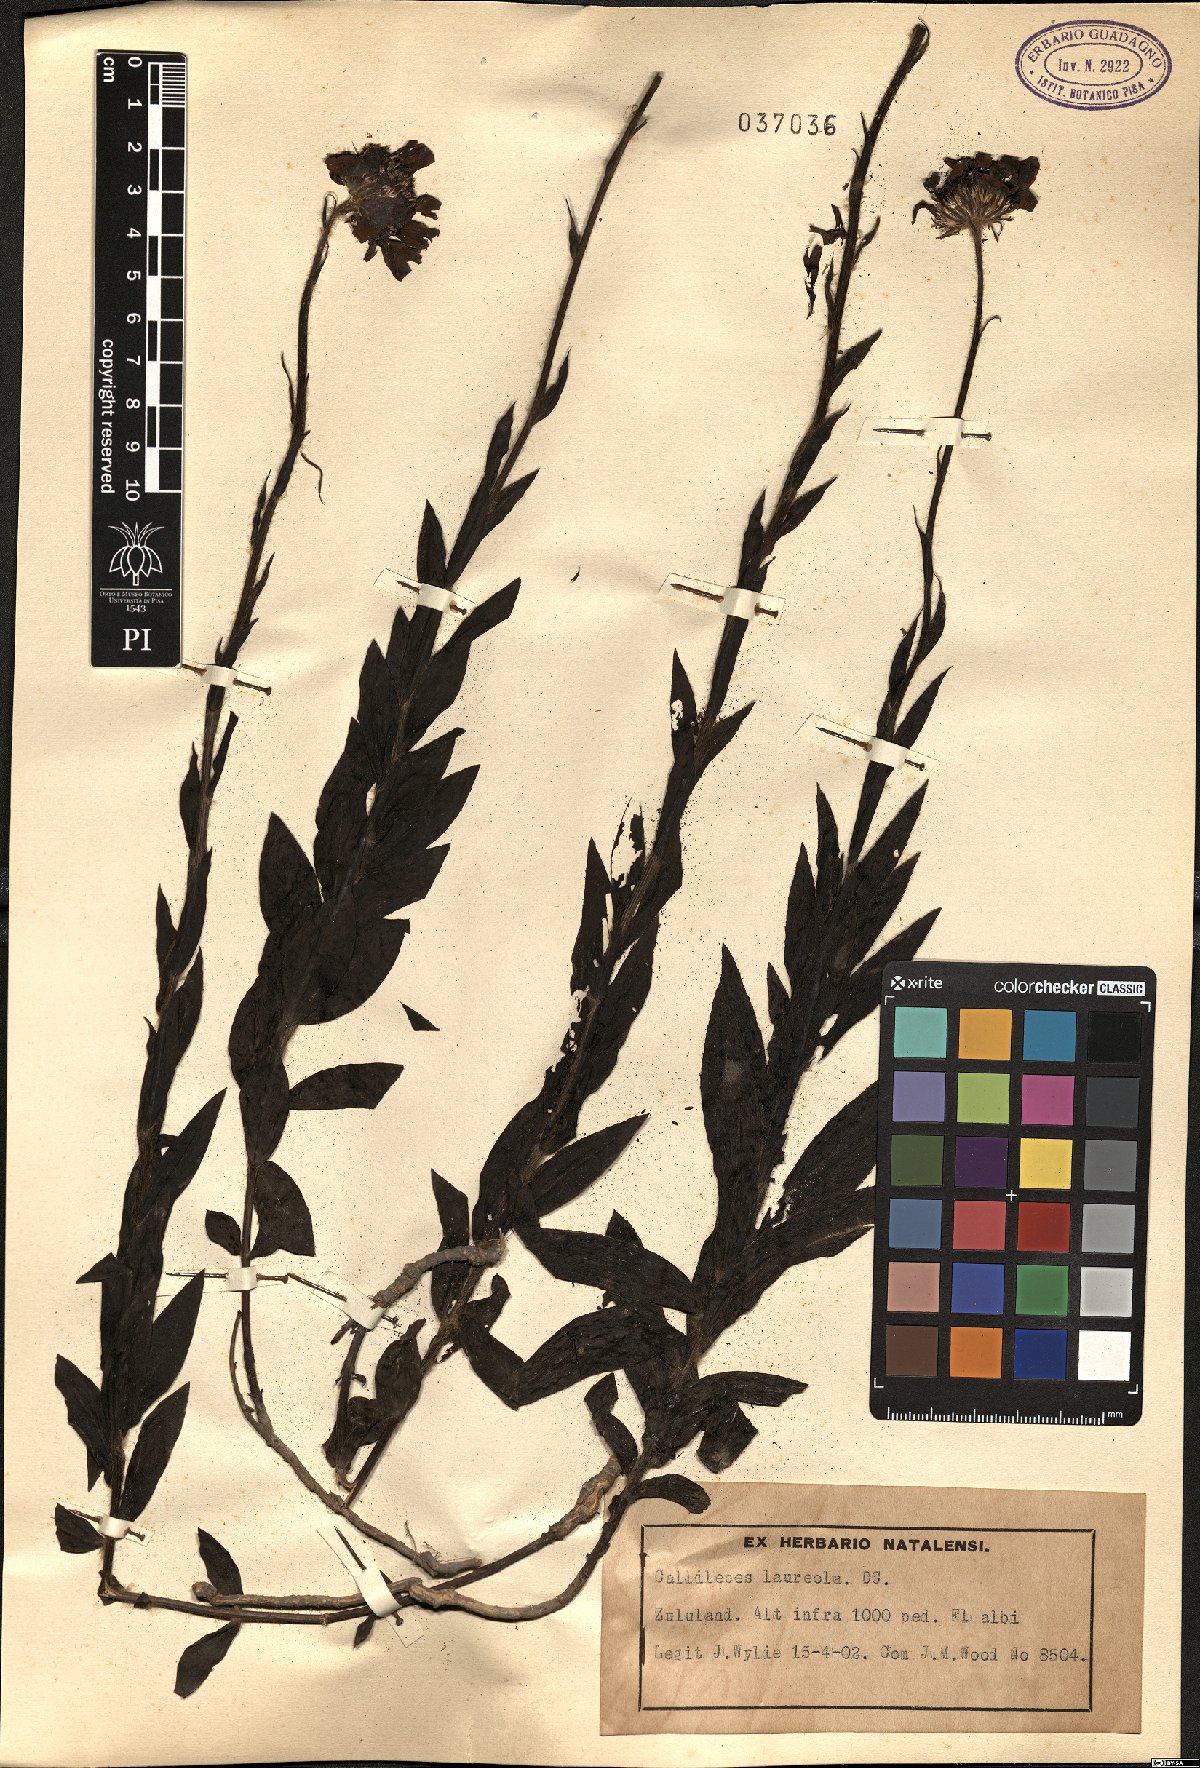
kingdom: Plantae
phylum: Tracheophyta
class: Magnoliopsida
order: Asterales
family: Asteraceae
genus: Callilepis
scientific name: Callilepis laureola
